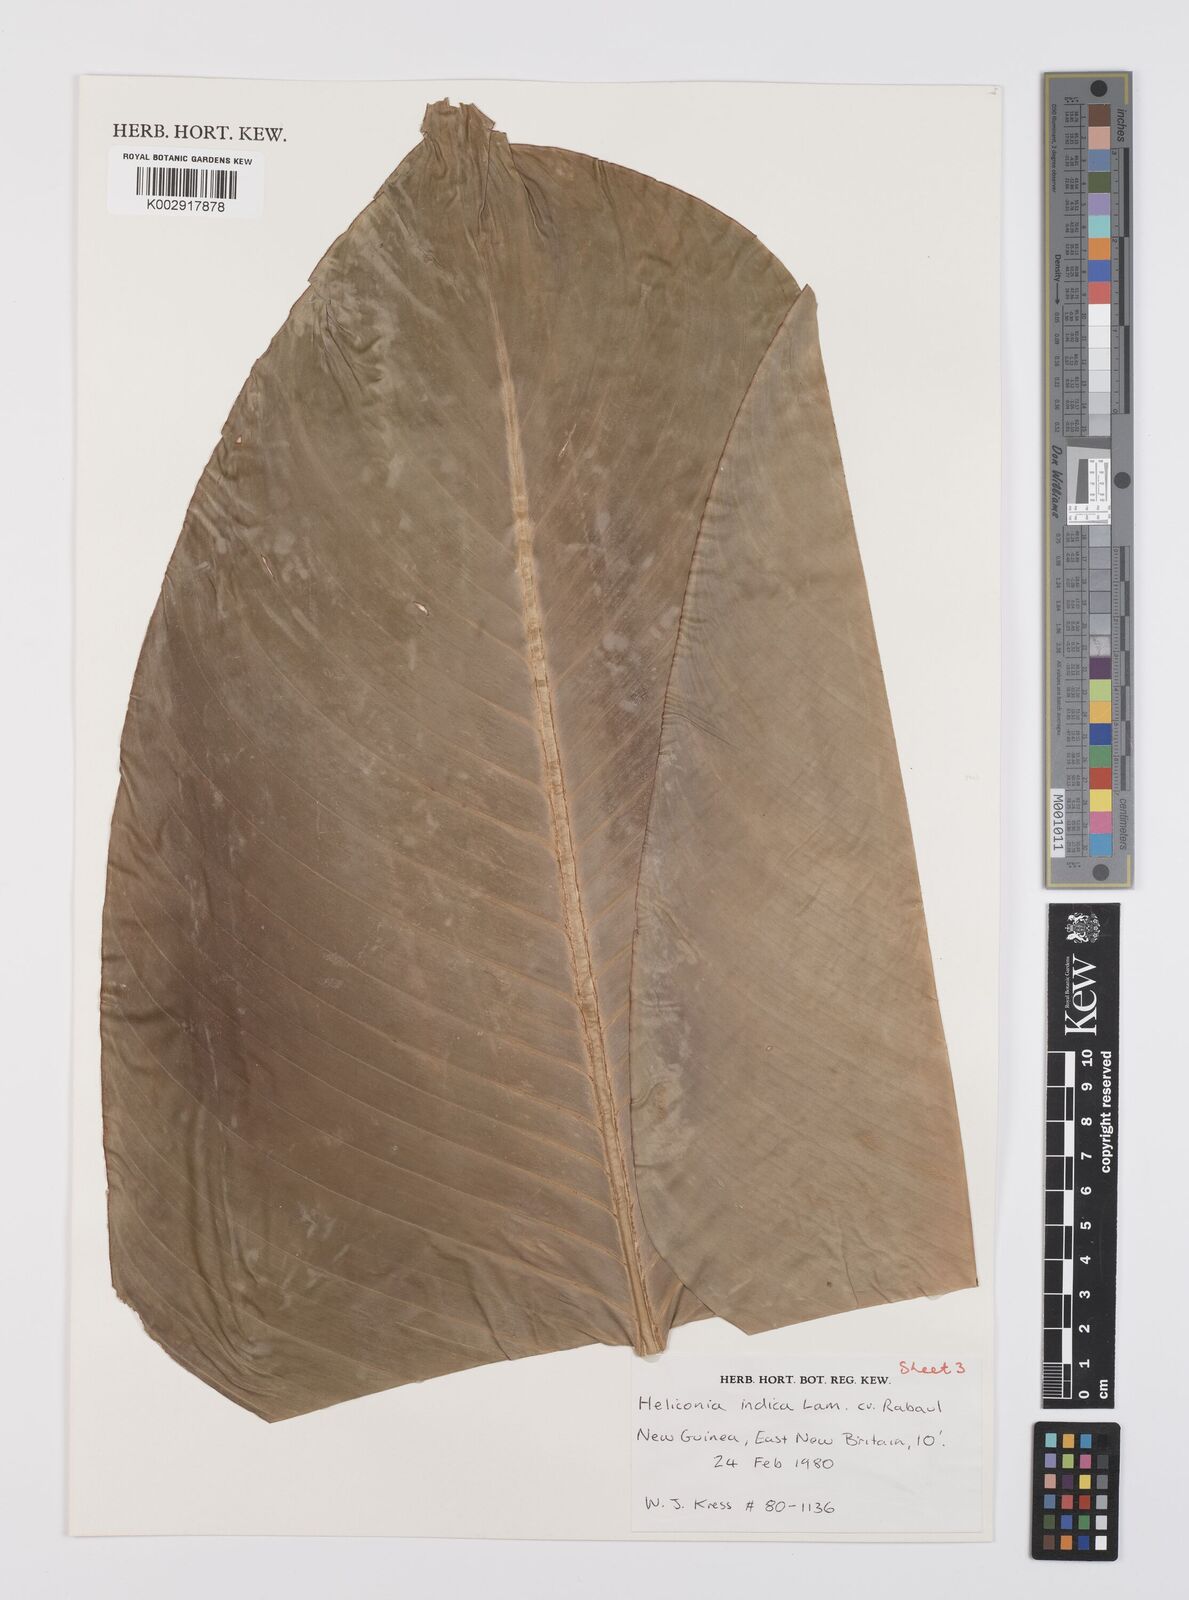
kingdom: Plantae
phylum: Tracheophyta
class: Liliopsida
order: Zingiberales
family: Heliconiaceae
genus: Heliconia
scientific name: Heliconia indica
